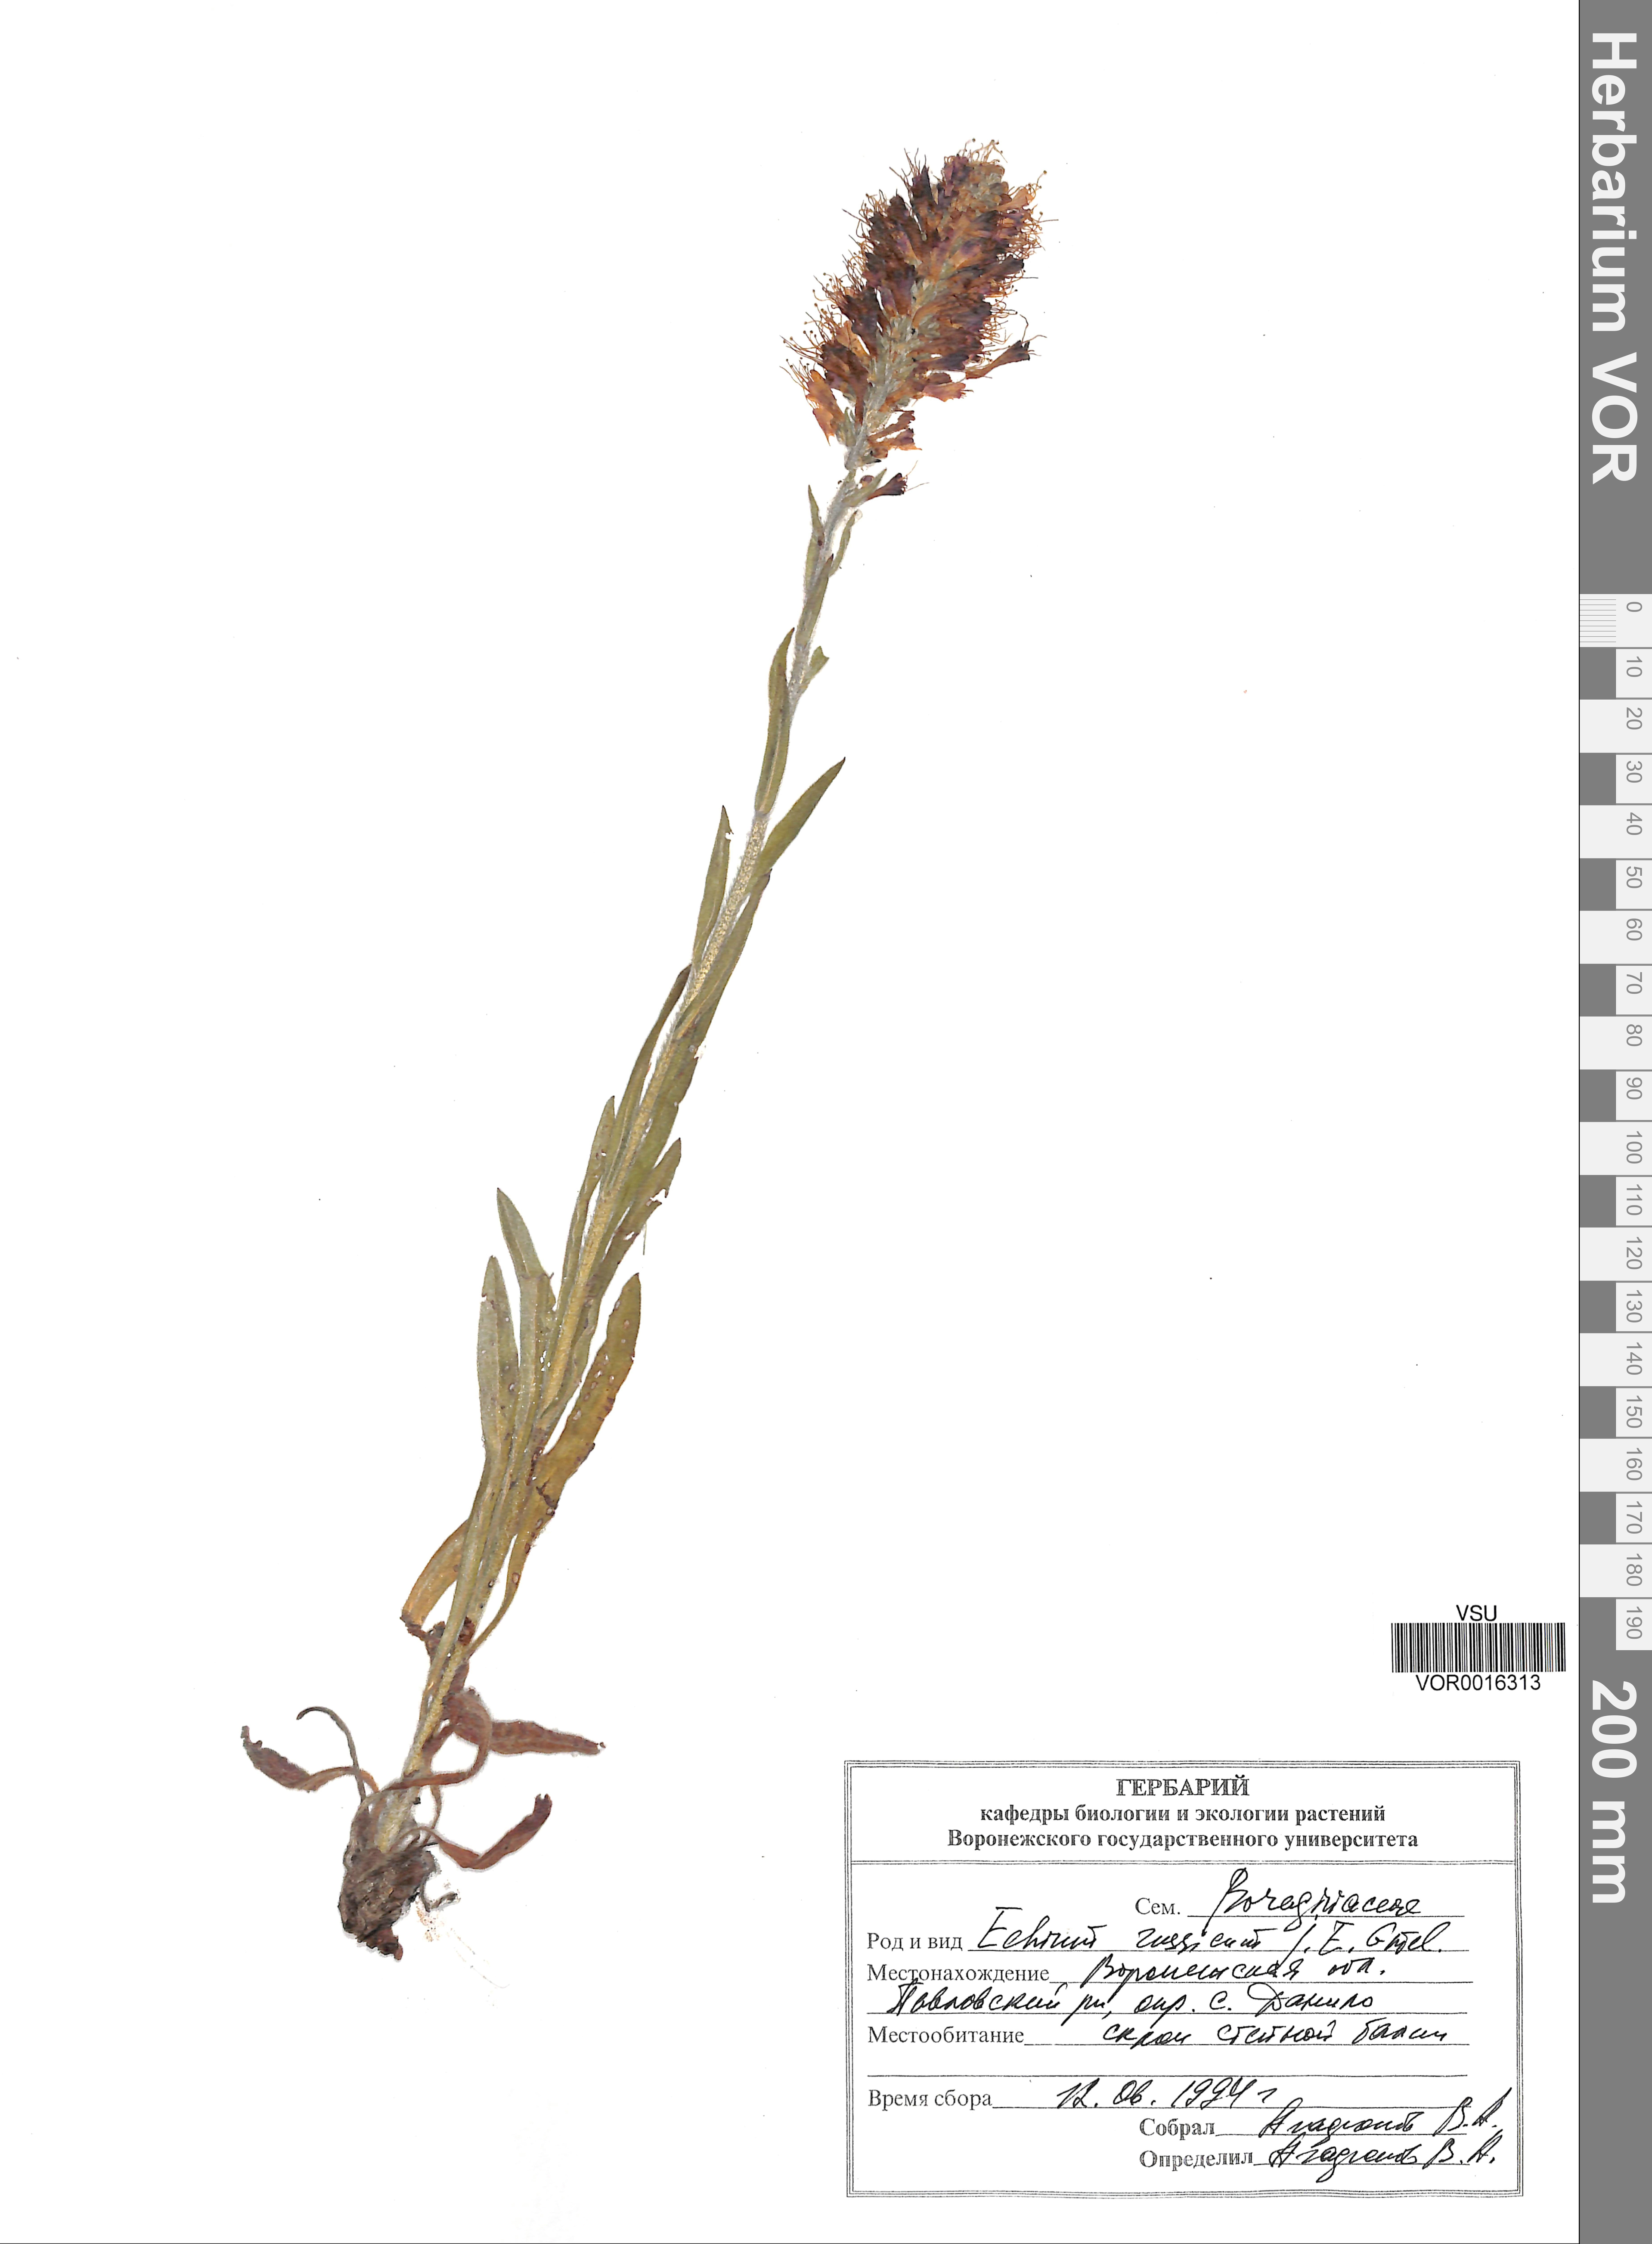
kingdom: Plantae
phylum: Tracheophyta
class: Magnoliopsida
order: Boraginales
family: Boraginaceae
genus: Pontechium
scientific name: Pontechium maculatum
